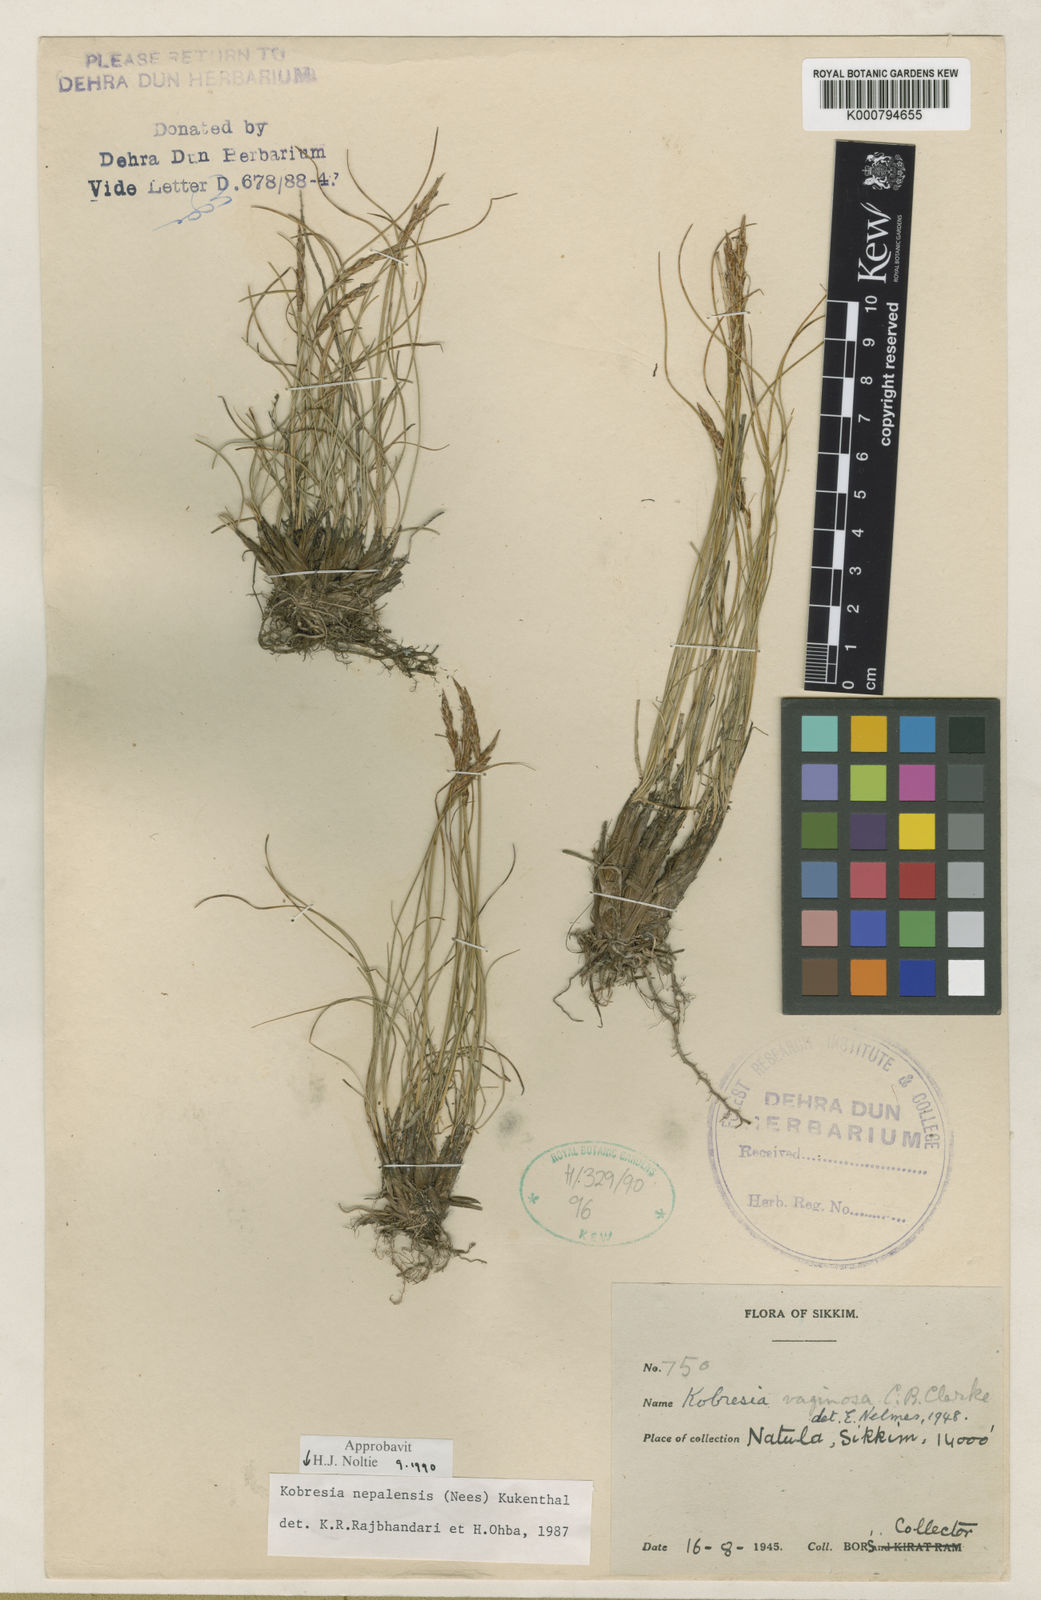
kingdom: Plantae
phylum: Tracheophyta
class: Liliopsida
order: Poales
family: Cyperaceae
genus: Carex
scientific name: Carex vaginosa
